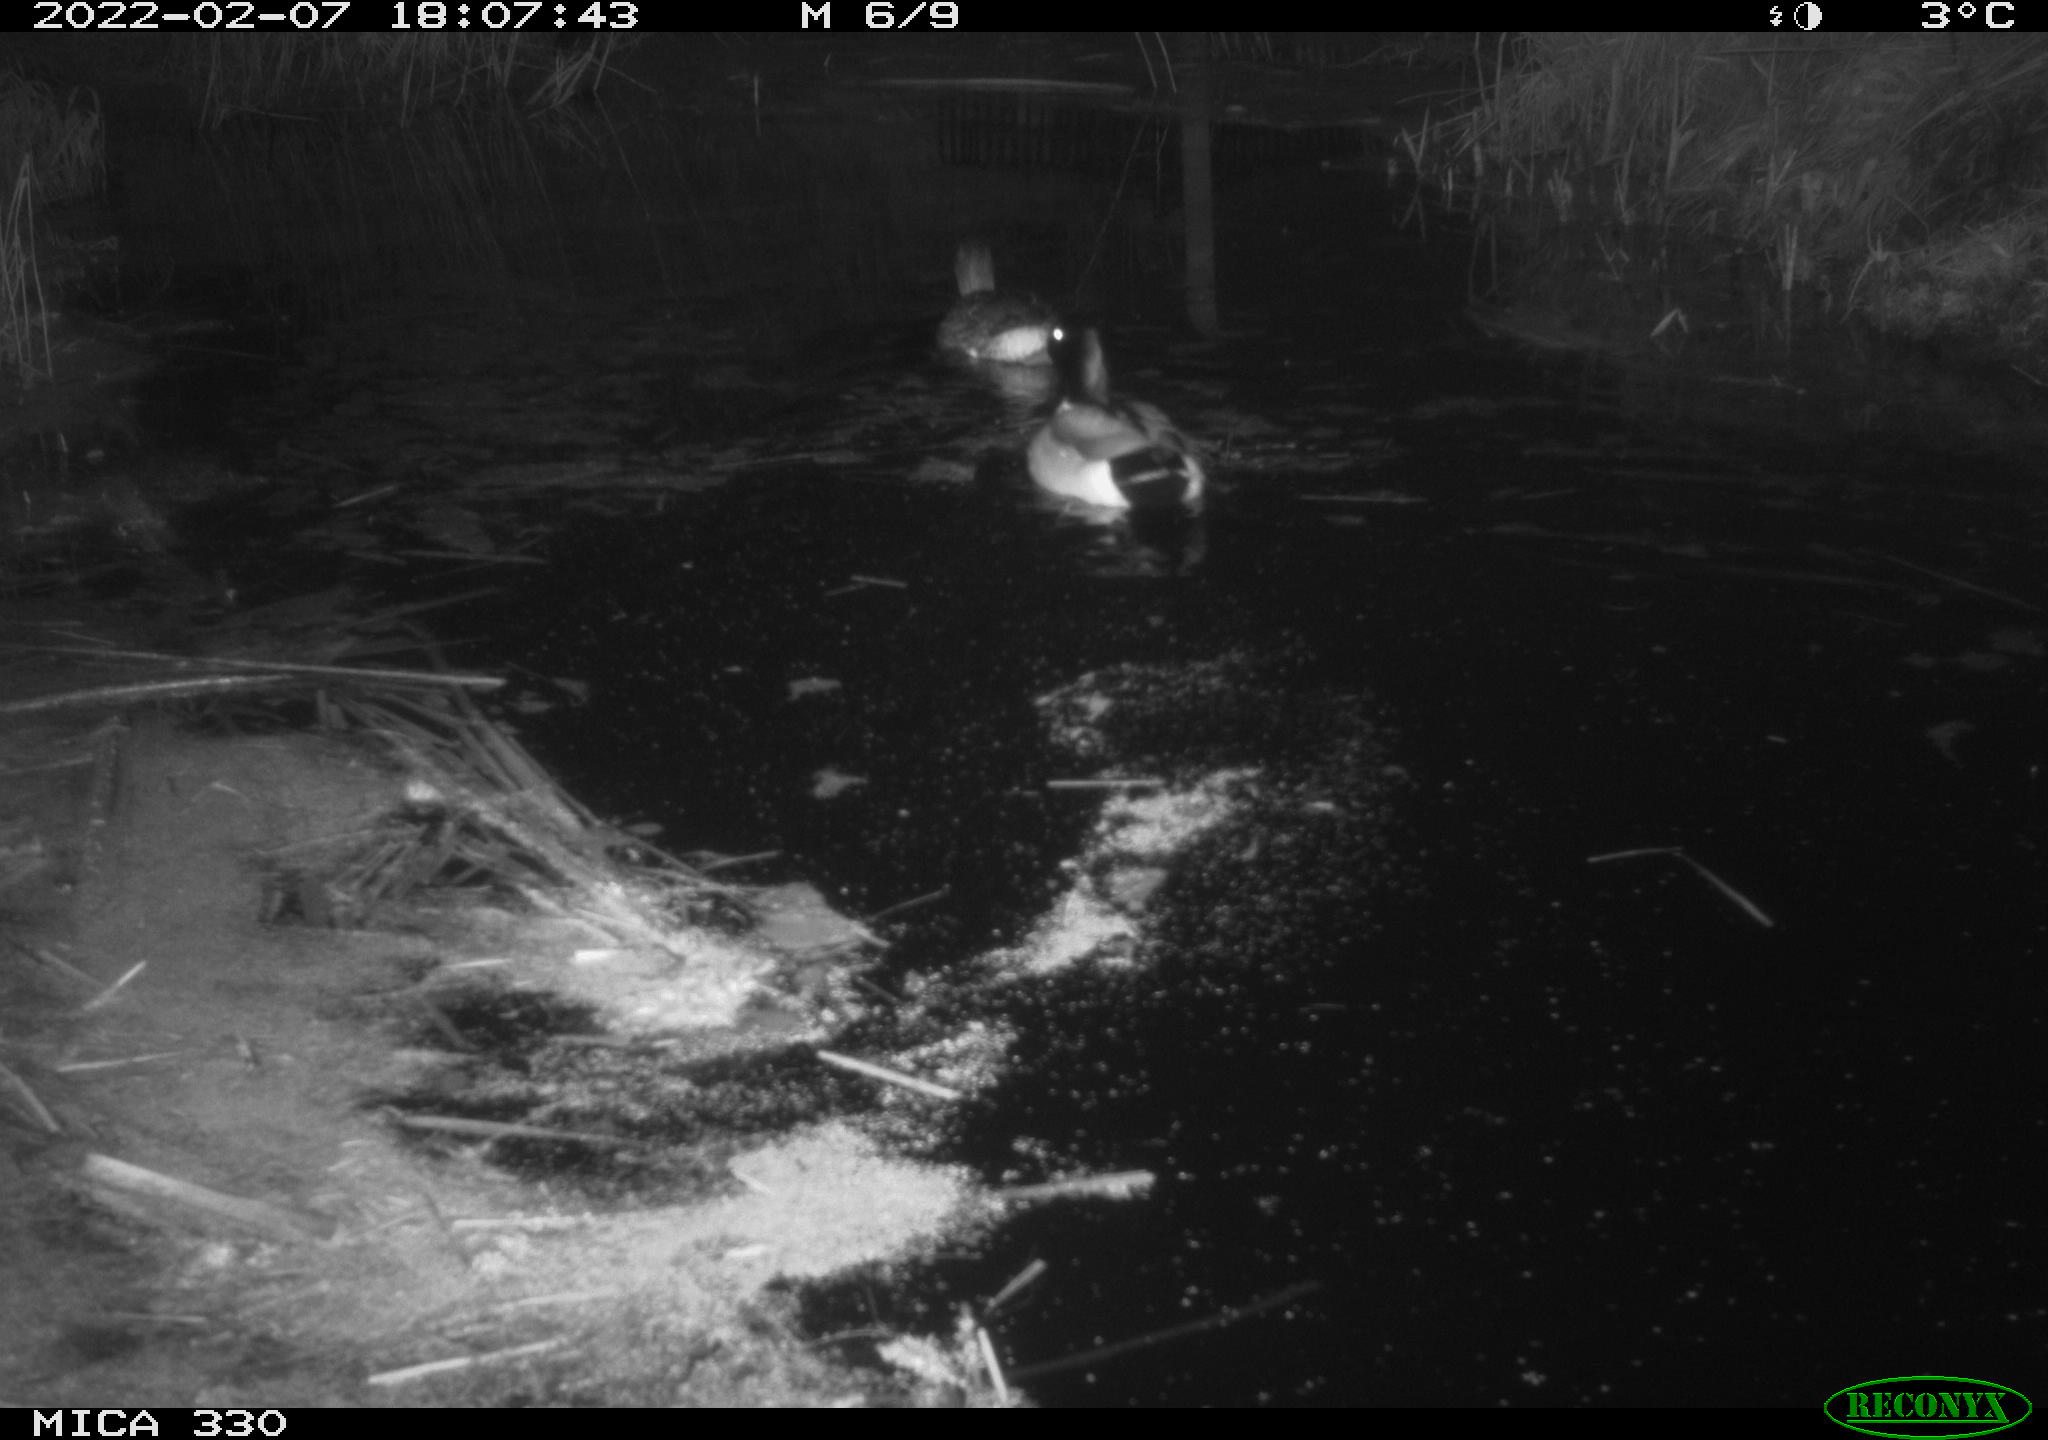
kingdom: Animalia
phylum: Chordata
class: Aves
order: Anseriformes
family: Anatidae
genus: Anas
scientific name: Anas platyrhynchos
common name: Mallard
